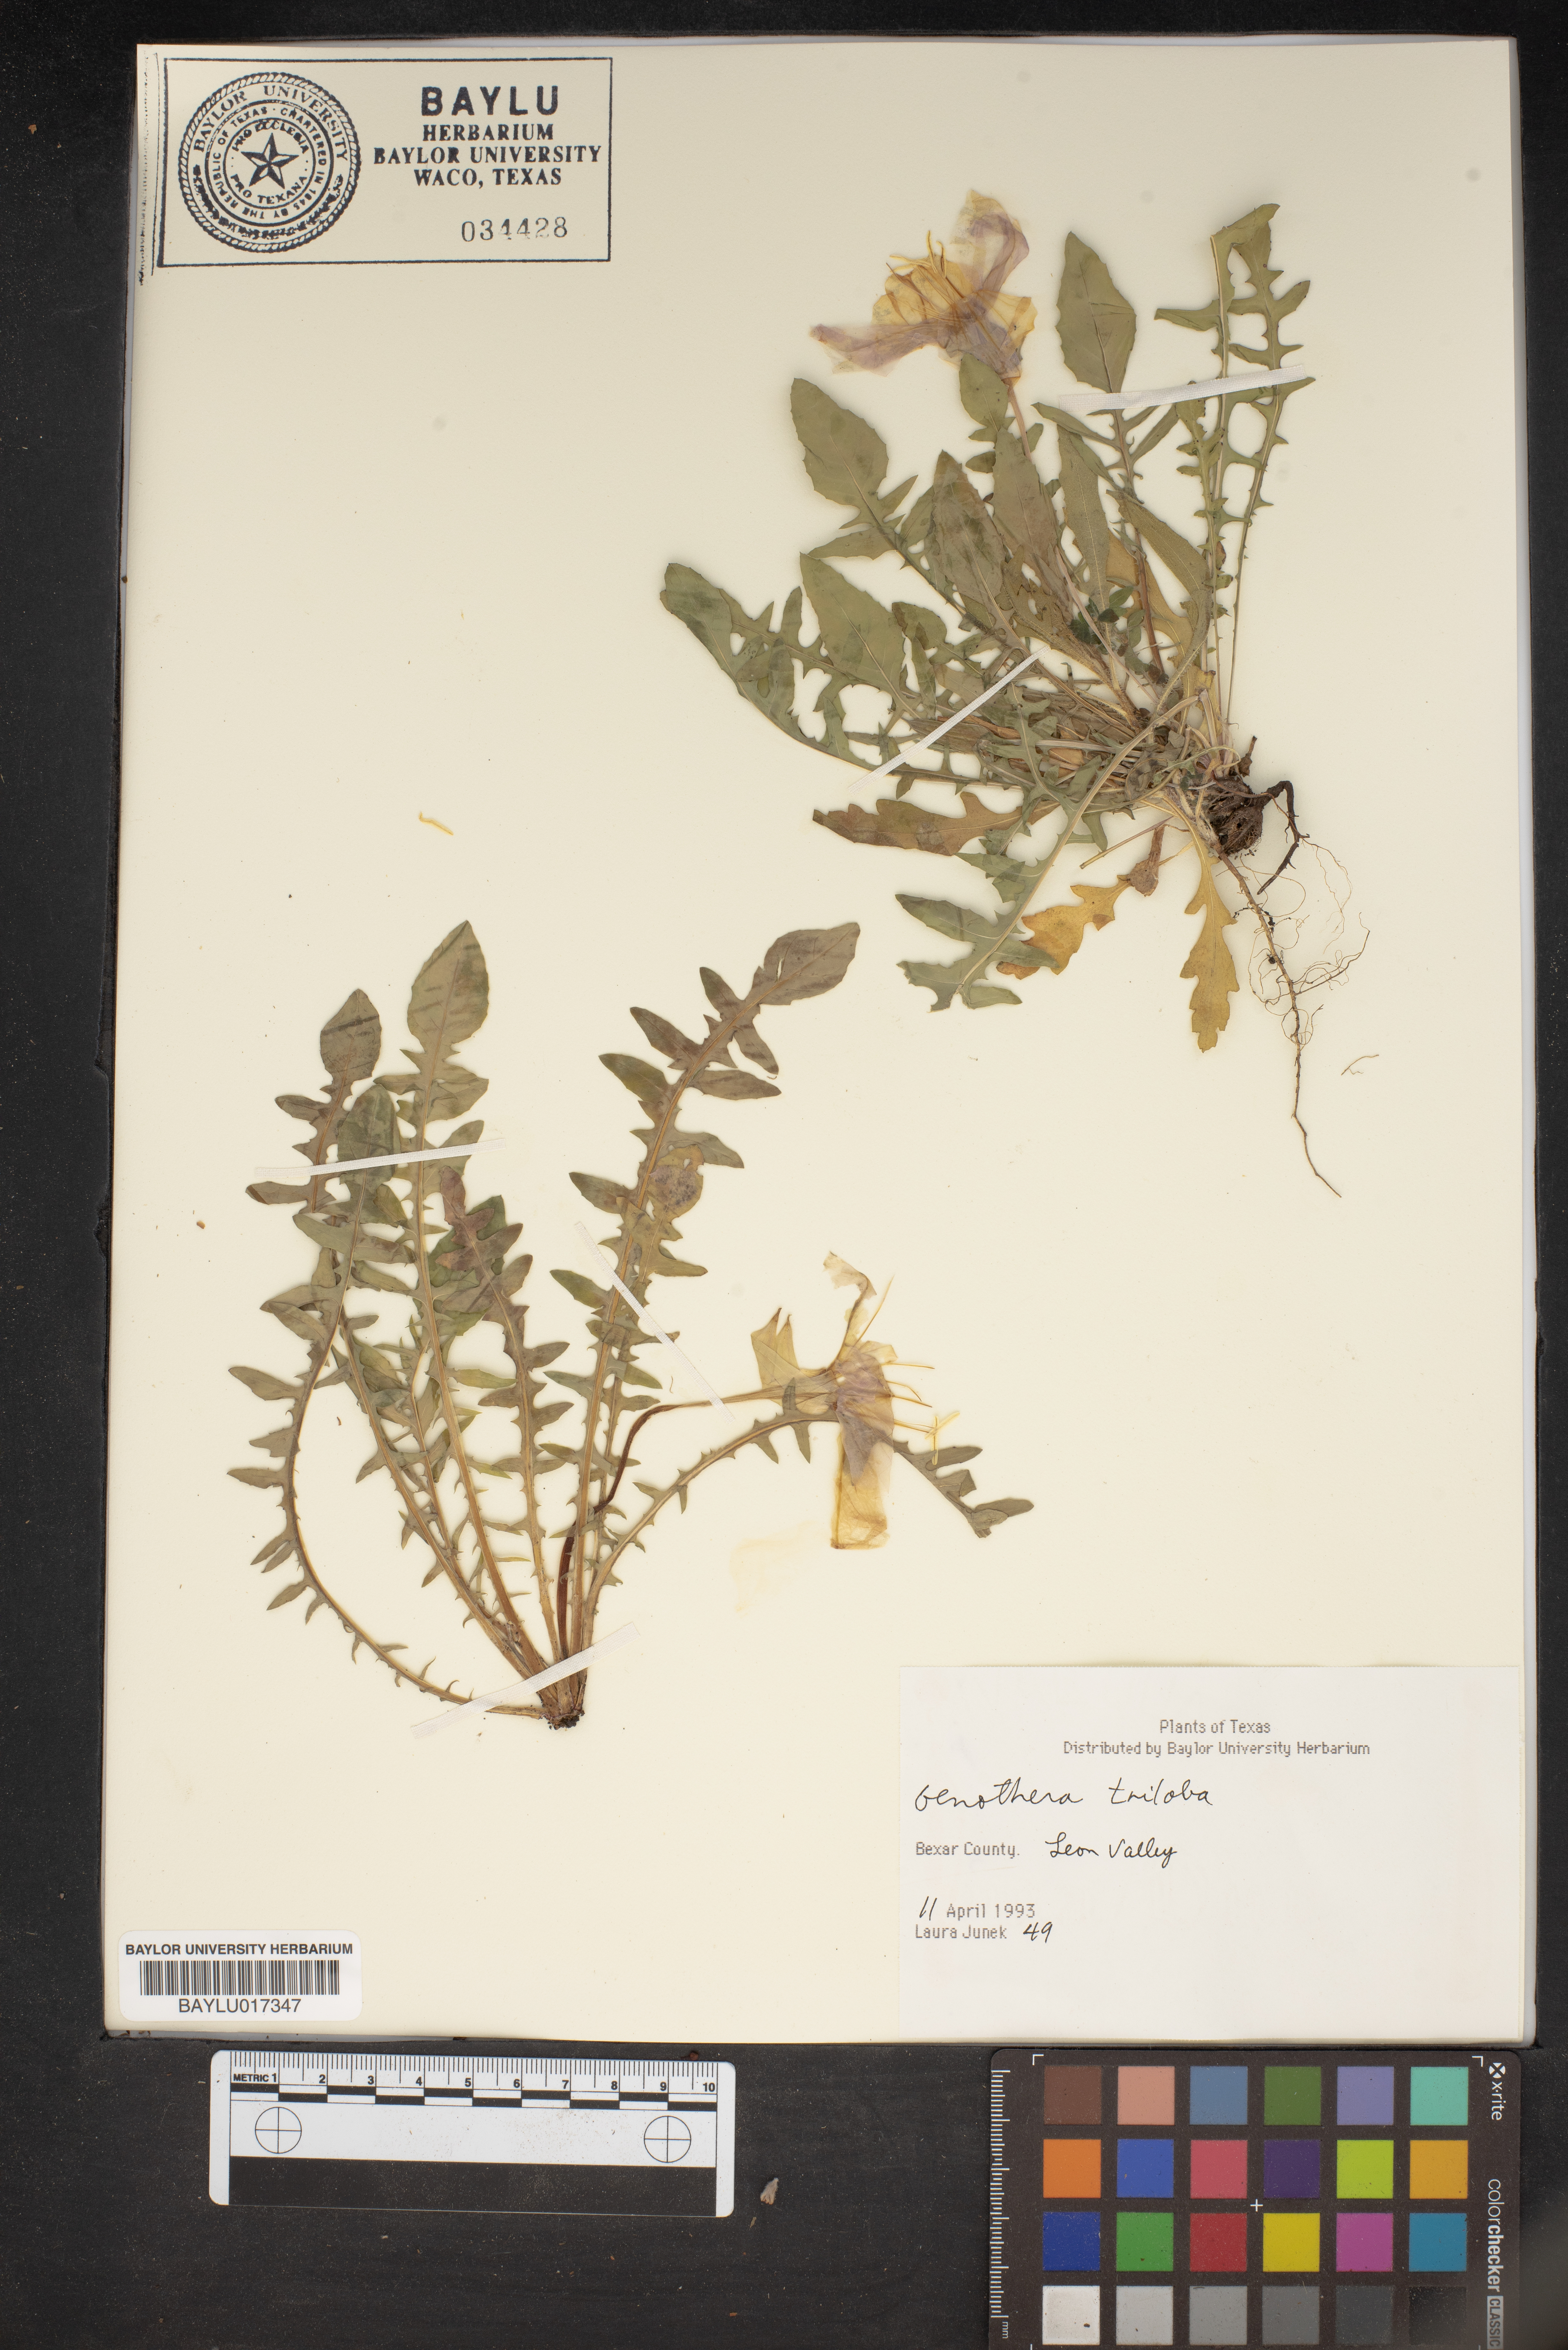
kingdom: Plantae
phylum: Tracheophyta
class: Magnoliopsida
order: Myrtales
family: Onagraceae
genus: Oenothera
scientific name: Oenothera triloba
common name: Sessile evening-primrose
